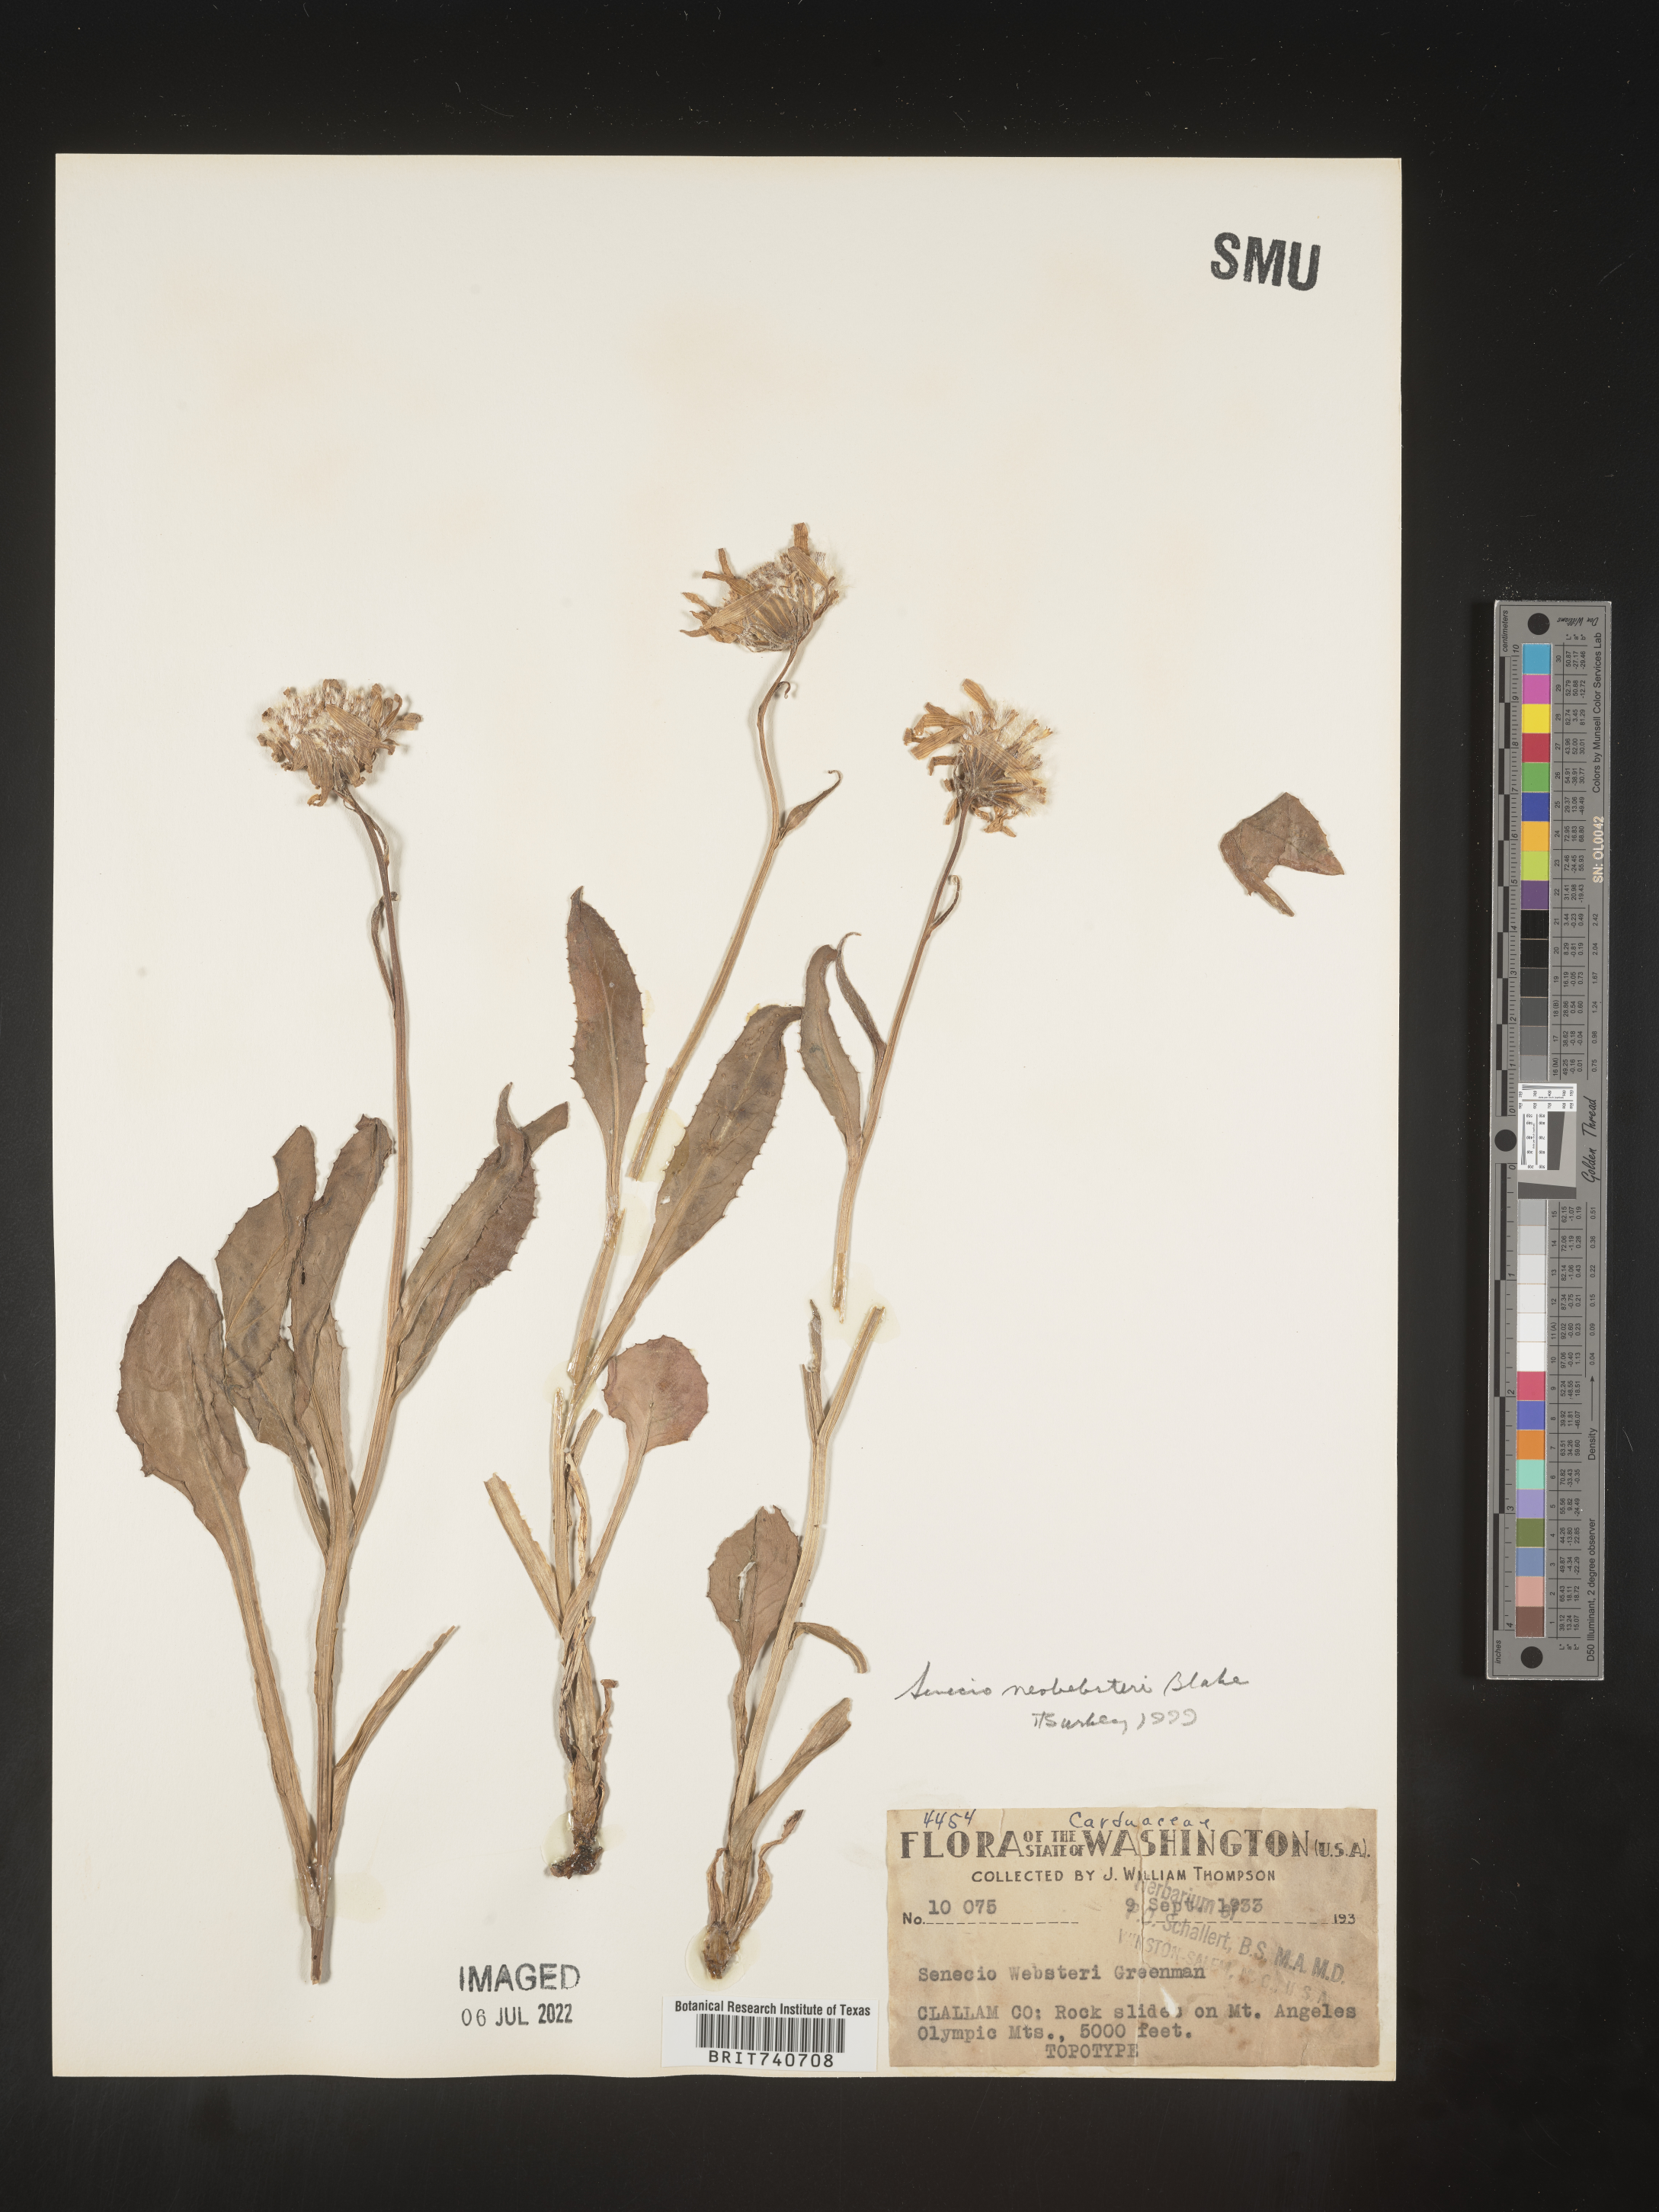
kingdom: Plantae
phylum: Tracheophyta
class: Magnoliopsida
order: Asterales
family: Asteraceae
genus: Senecio
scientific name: Senecio
